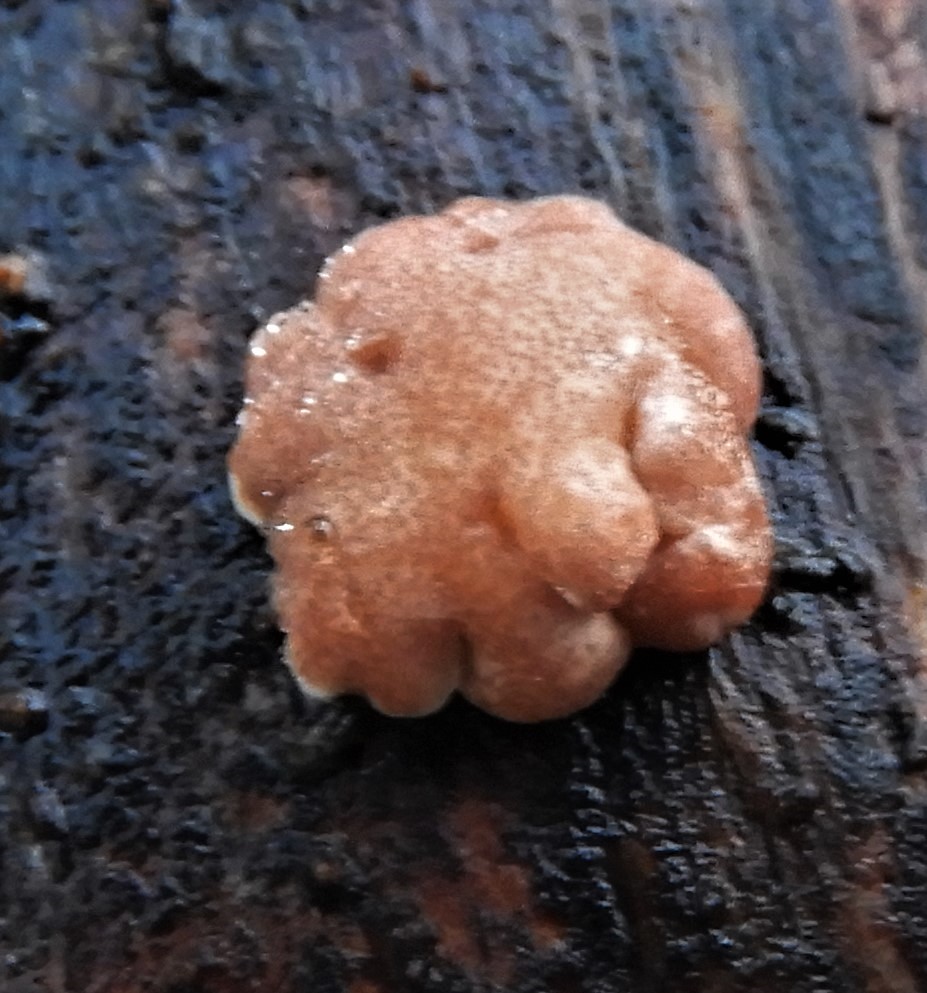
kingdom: Fungi
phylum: Ascomycota
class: Sordariomycetes
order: Hypocreales
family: Hypocreaceae
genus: Trichoderma
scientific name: Trichoderma europaeum
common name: rosabrun kødkerne
